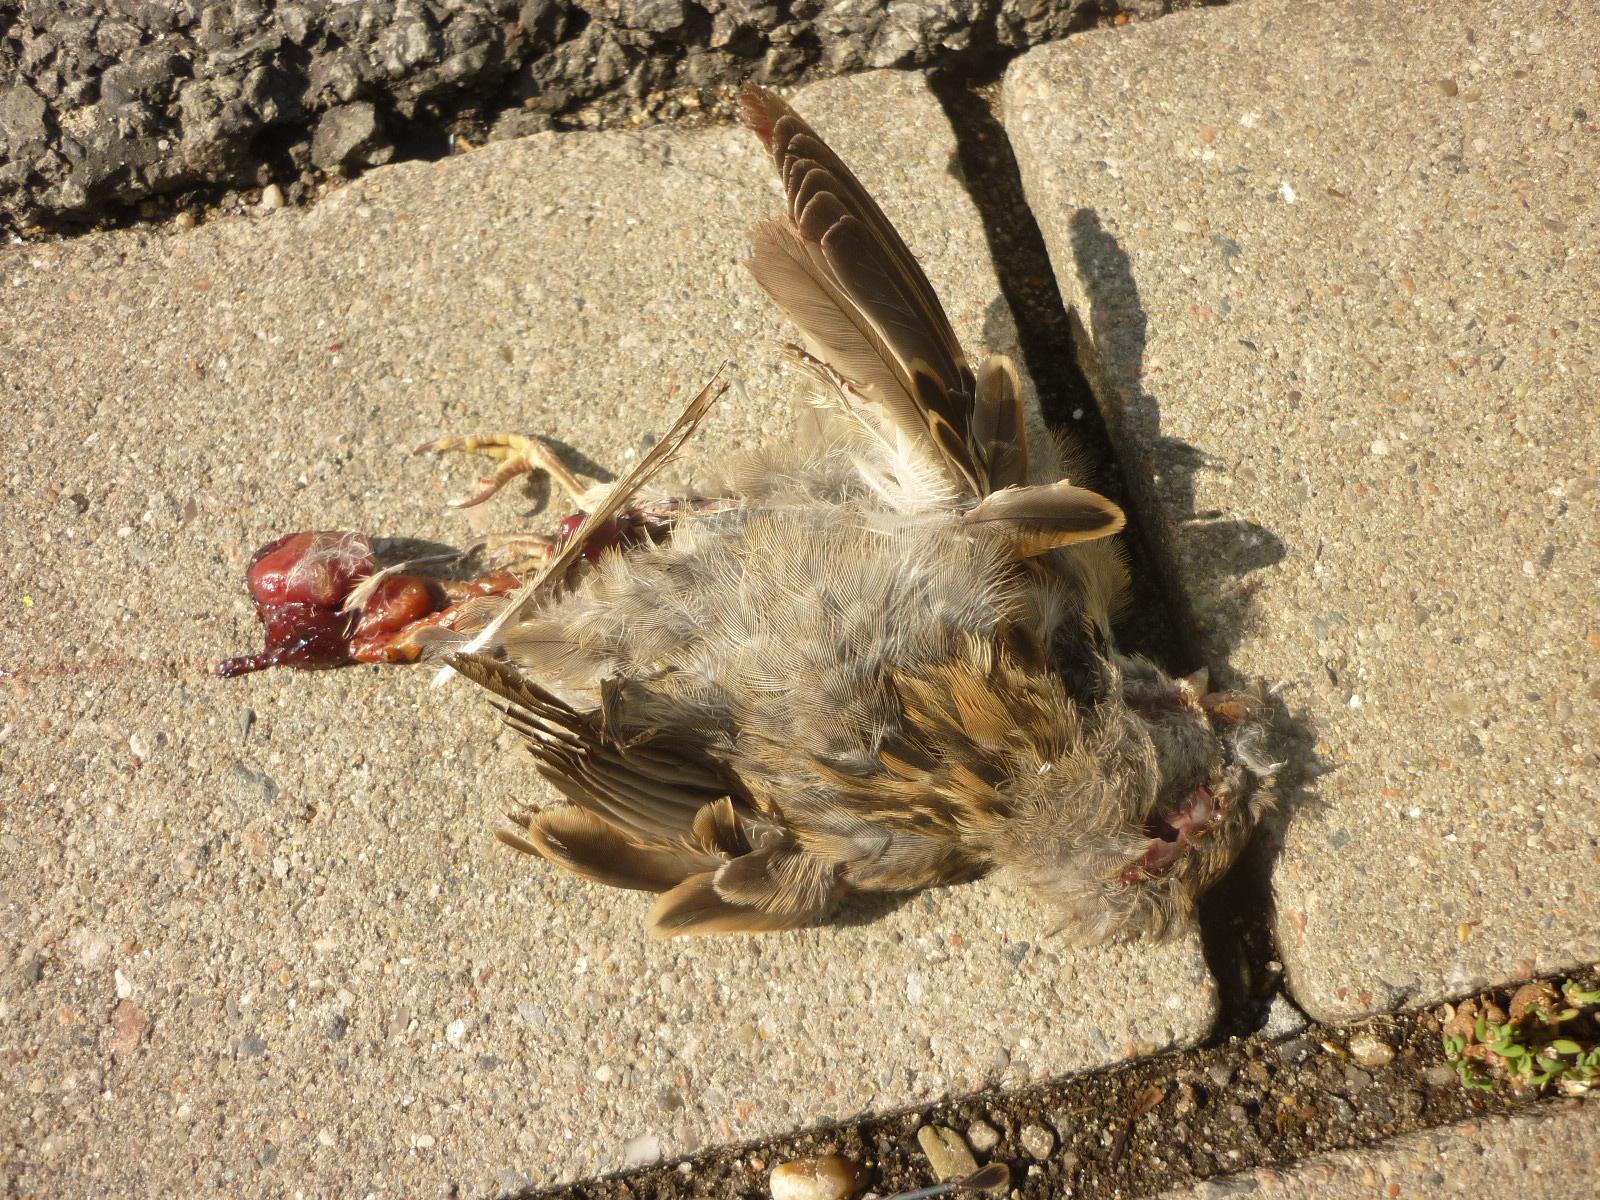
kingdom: Animalia
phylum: Chordata
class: Aves
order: Passeriformes
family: Passeridae
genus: Passer
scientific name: Passer
